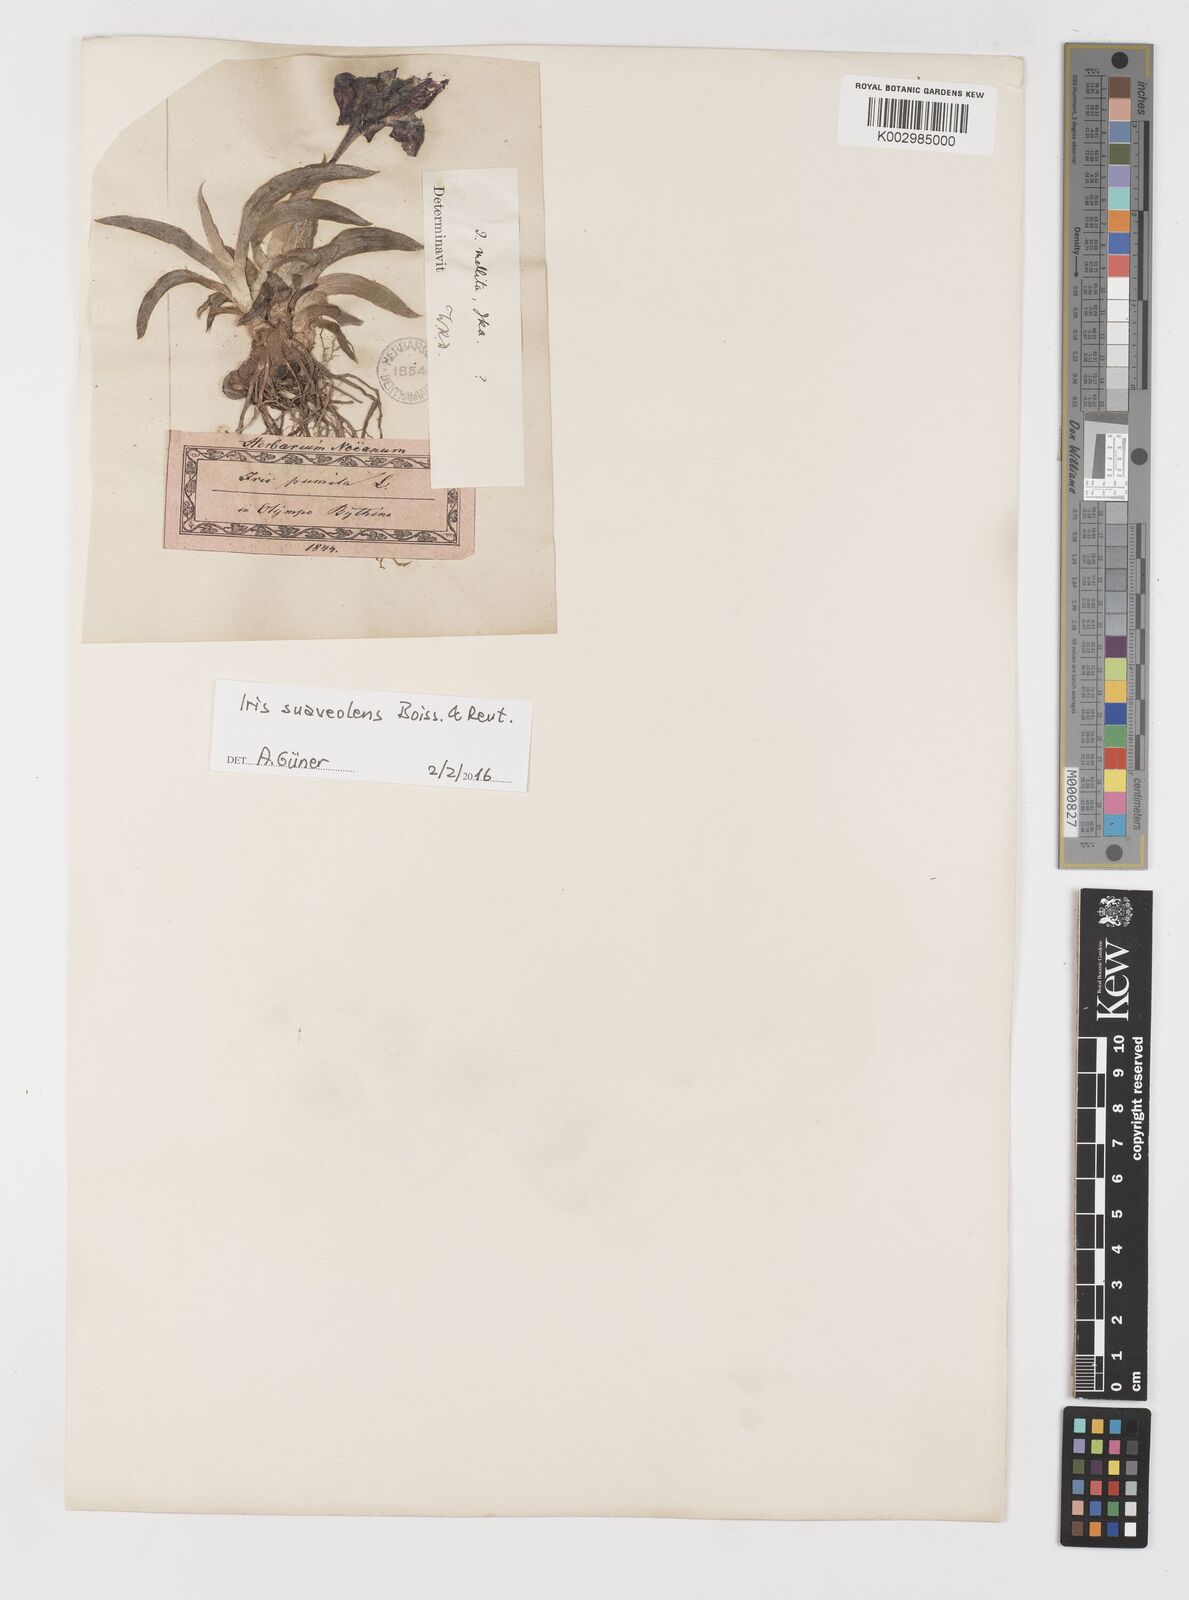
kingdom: Plantae
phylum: Tracheophyta
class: Liliopsida
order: Asparagales
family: Iridaceae
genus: Iris
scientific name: Iris suaveolens
